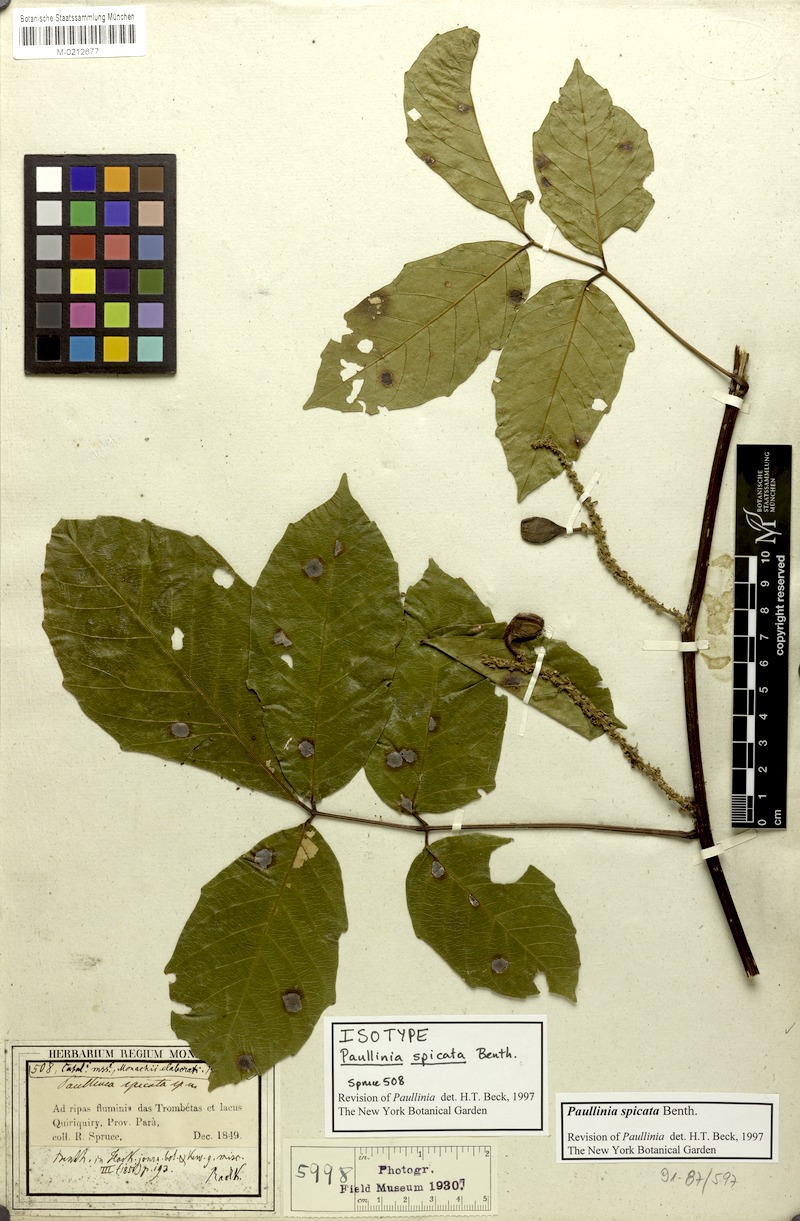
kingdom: Plantae
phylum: Tracheophyta
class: Magnoliopsida
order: Sapindales
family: Sapindaceae
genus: Paullinia
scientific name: Paullinia spicata
